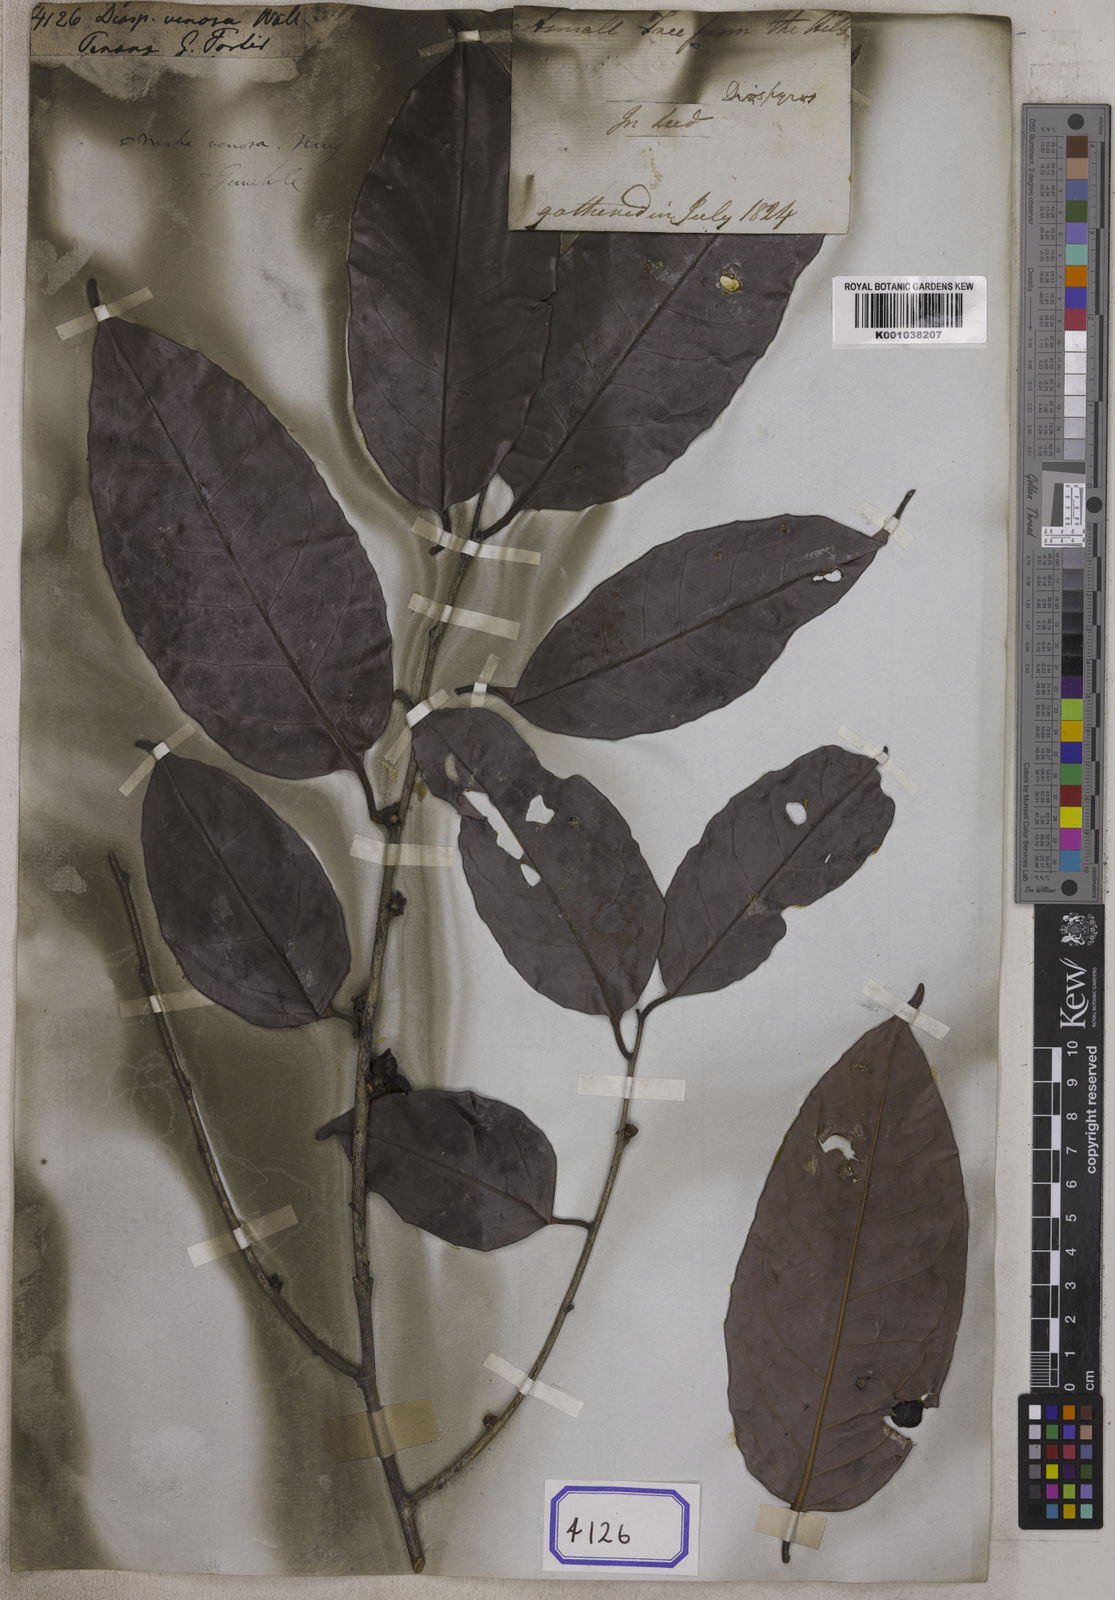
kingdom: Plantae
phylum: Tracheophyta
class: Magnoliopsida
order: Ericales
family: Ebenaceae
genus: Diospyros
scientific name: Diospyros
